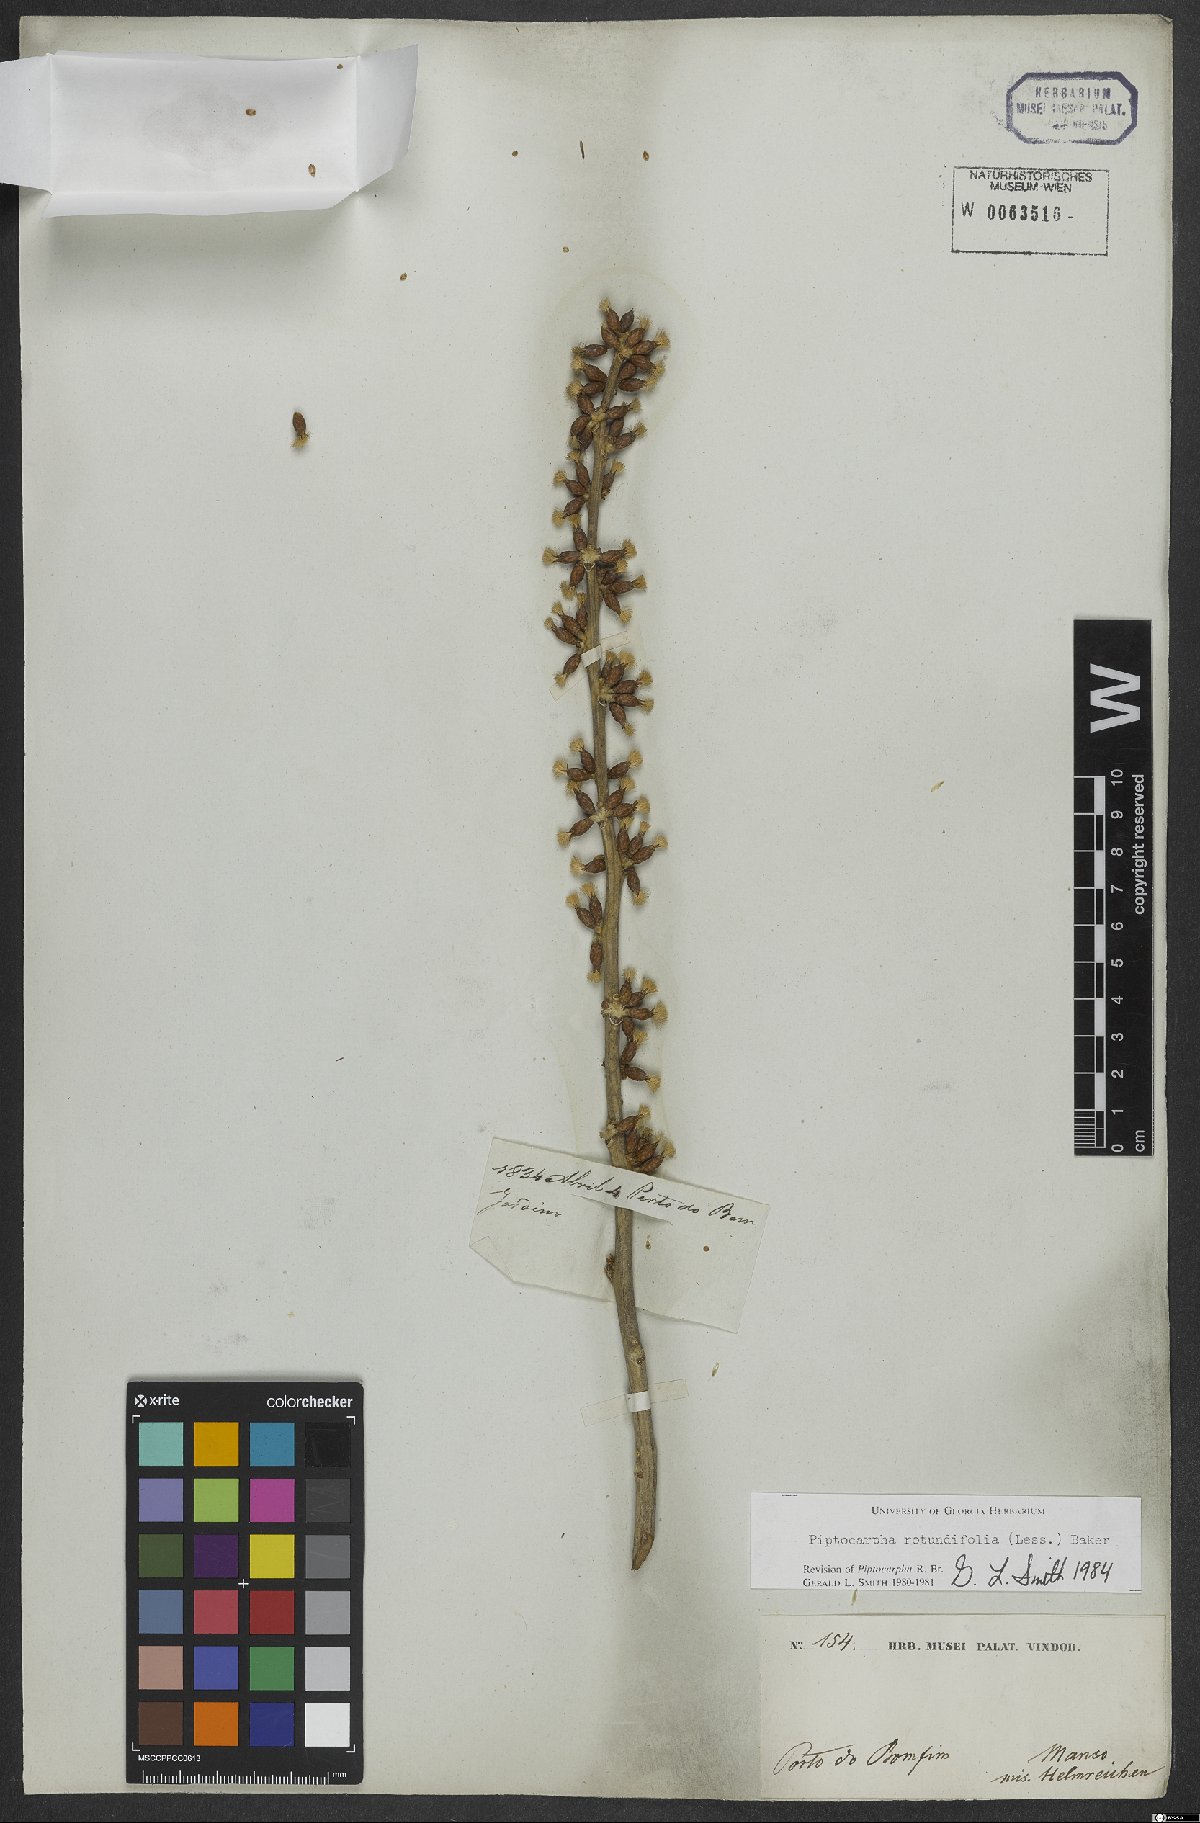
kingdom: Plantae
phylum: Tracheophyta
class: Magnoliopsida
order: Asterales
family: Asteraceae
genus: Piptocarpha
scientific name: Piptocarpha rotundifolia
